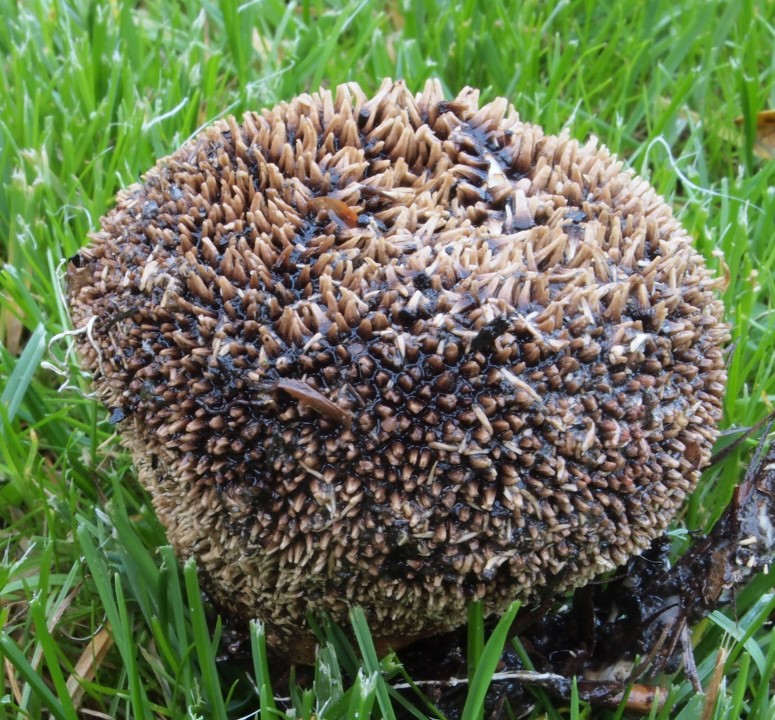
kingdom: Fungi
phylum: Basidiomycota
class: Agaricomycetes
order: Agaricales
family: Lycoperdaceae
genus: Lycoperdon
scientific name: Lycoperdon echinatum
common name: pindsvine-støvbold
